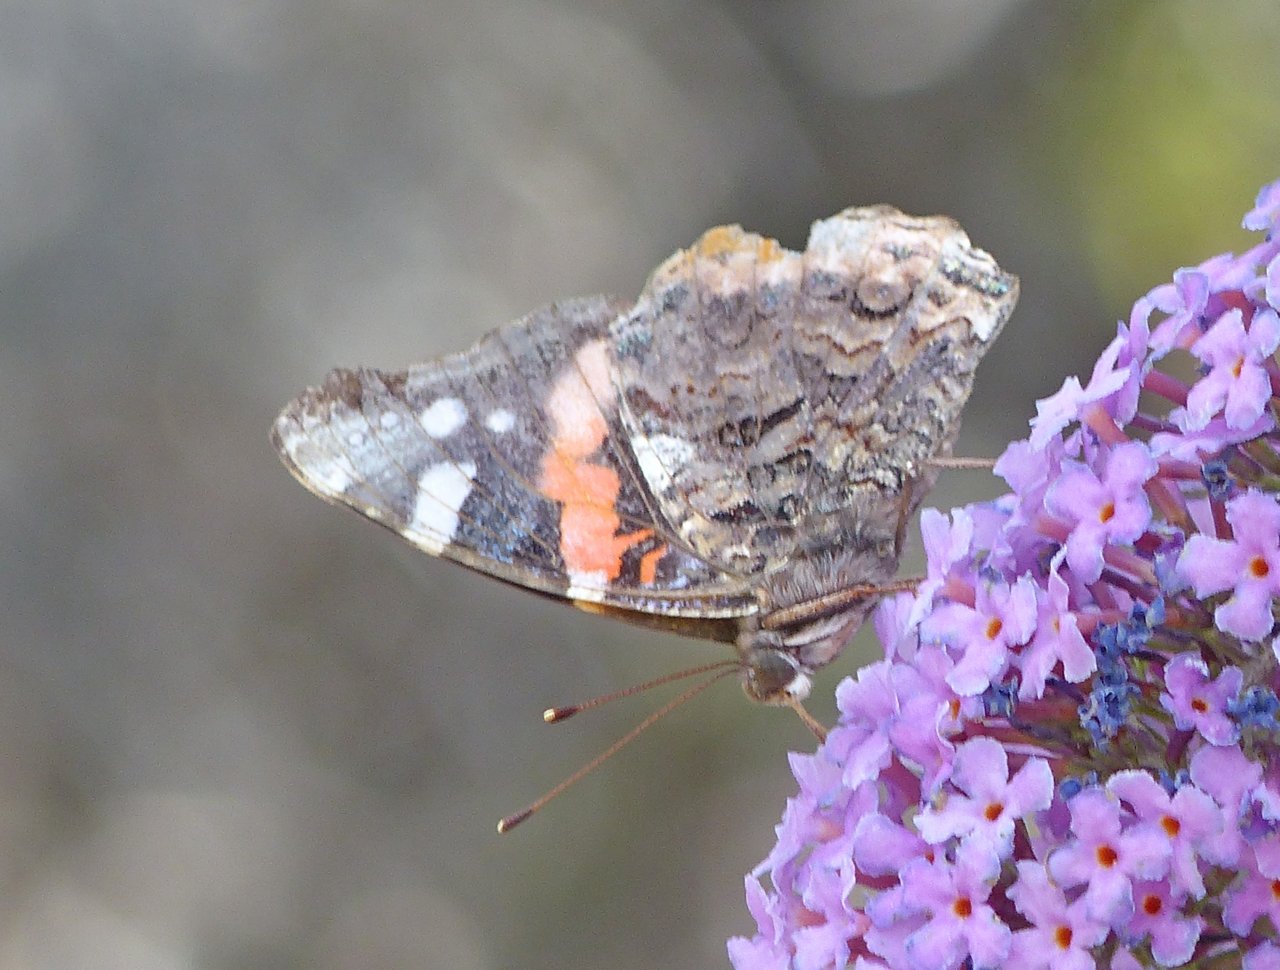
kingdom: Animalia
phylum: Arthropoda
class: Insecta
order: Lepidoptera
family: Nymphalidae
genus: Vanessa
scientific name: Vanessa atalanta
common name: Red Admiral
